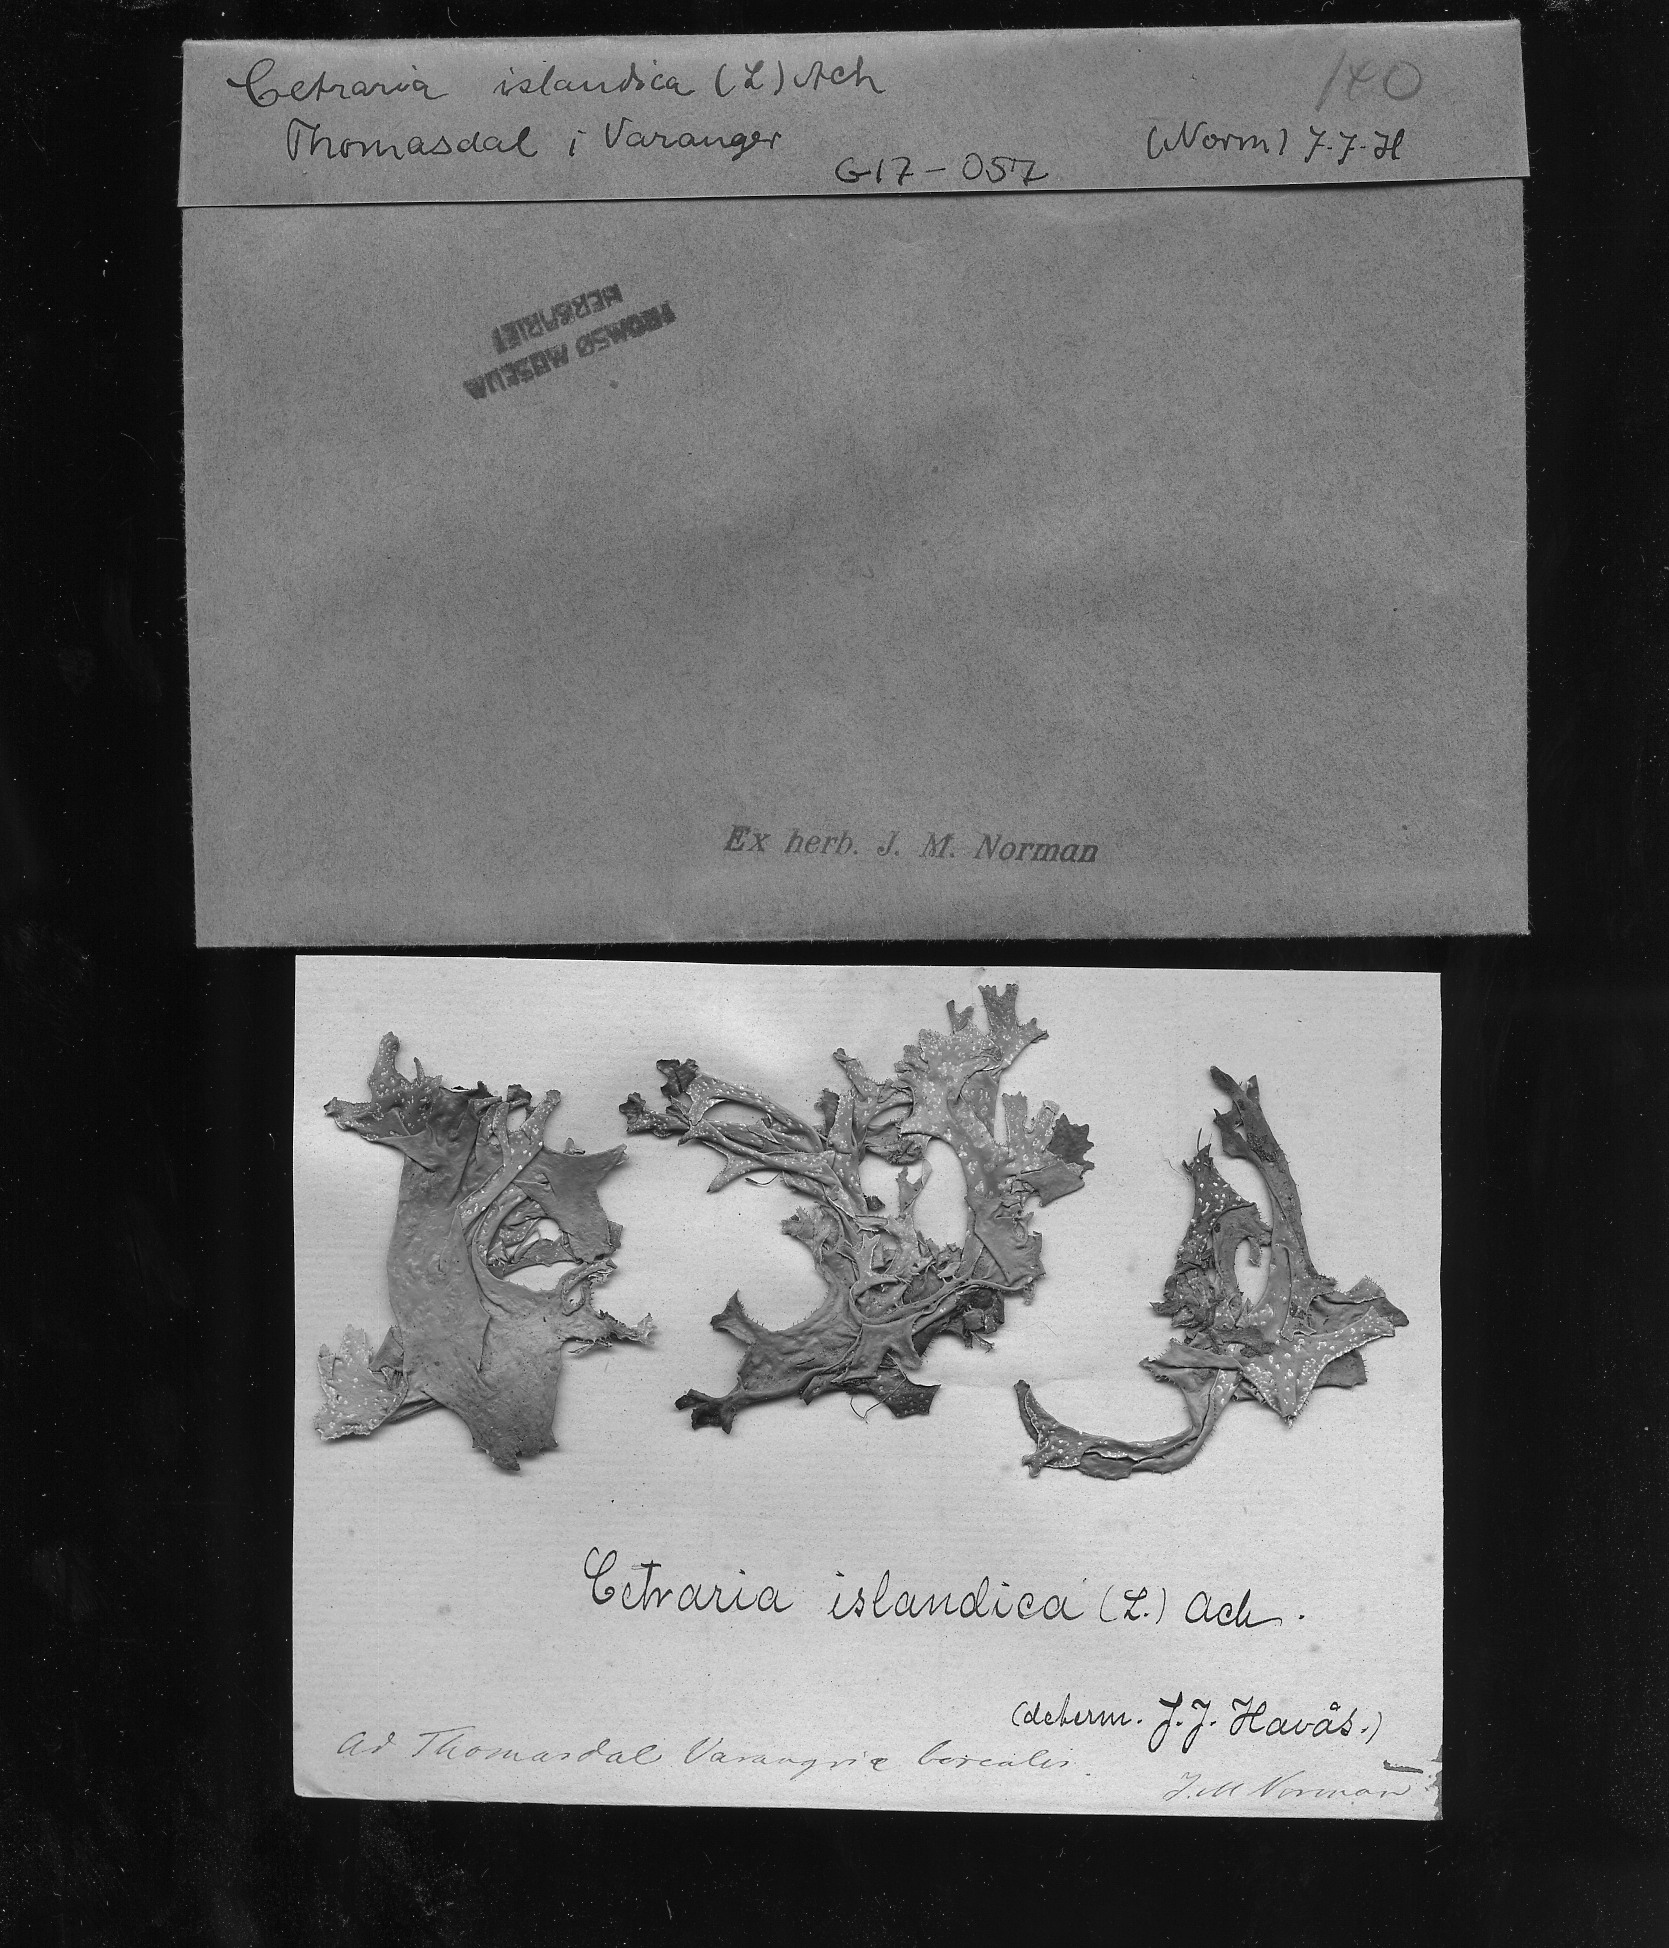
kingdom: Fungi
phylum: Ascomycota
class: Lecanoromycetes
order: Lecanorales
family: Parmeliaceae
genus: Cetraria
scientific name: Cetraria islandica
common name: Iceland lichen
